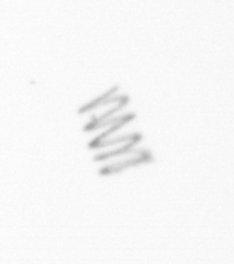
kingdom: Chromista
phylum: Ochrophyta
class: Bacillariophyceae
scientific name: Bacillariophyceae
